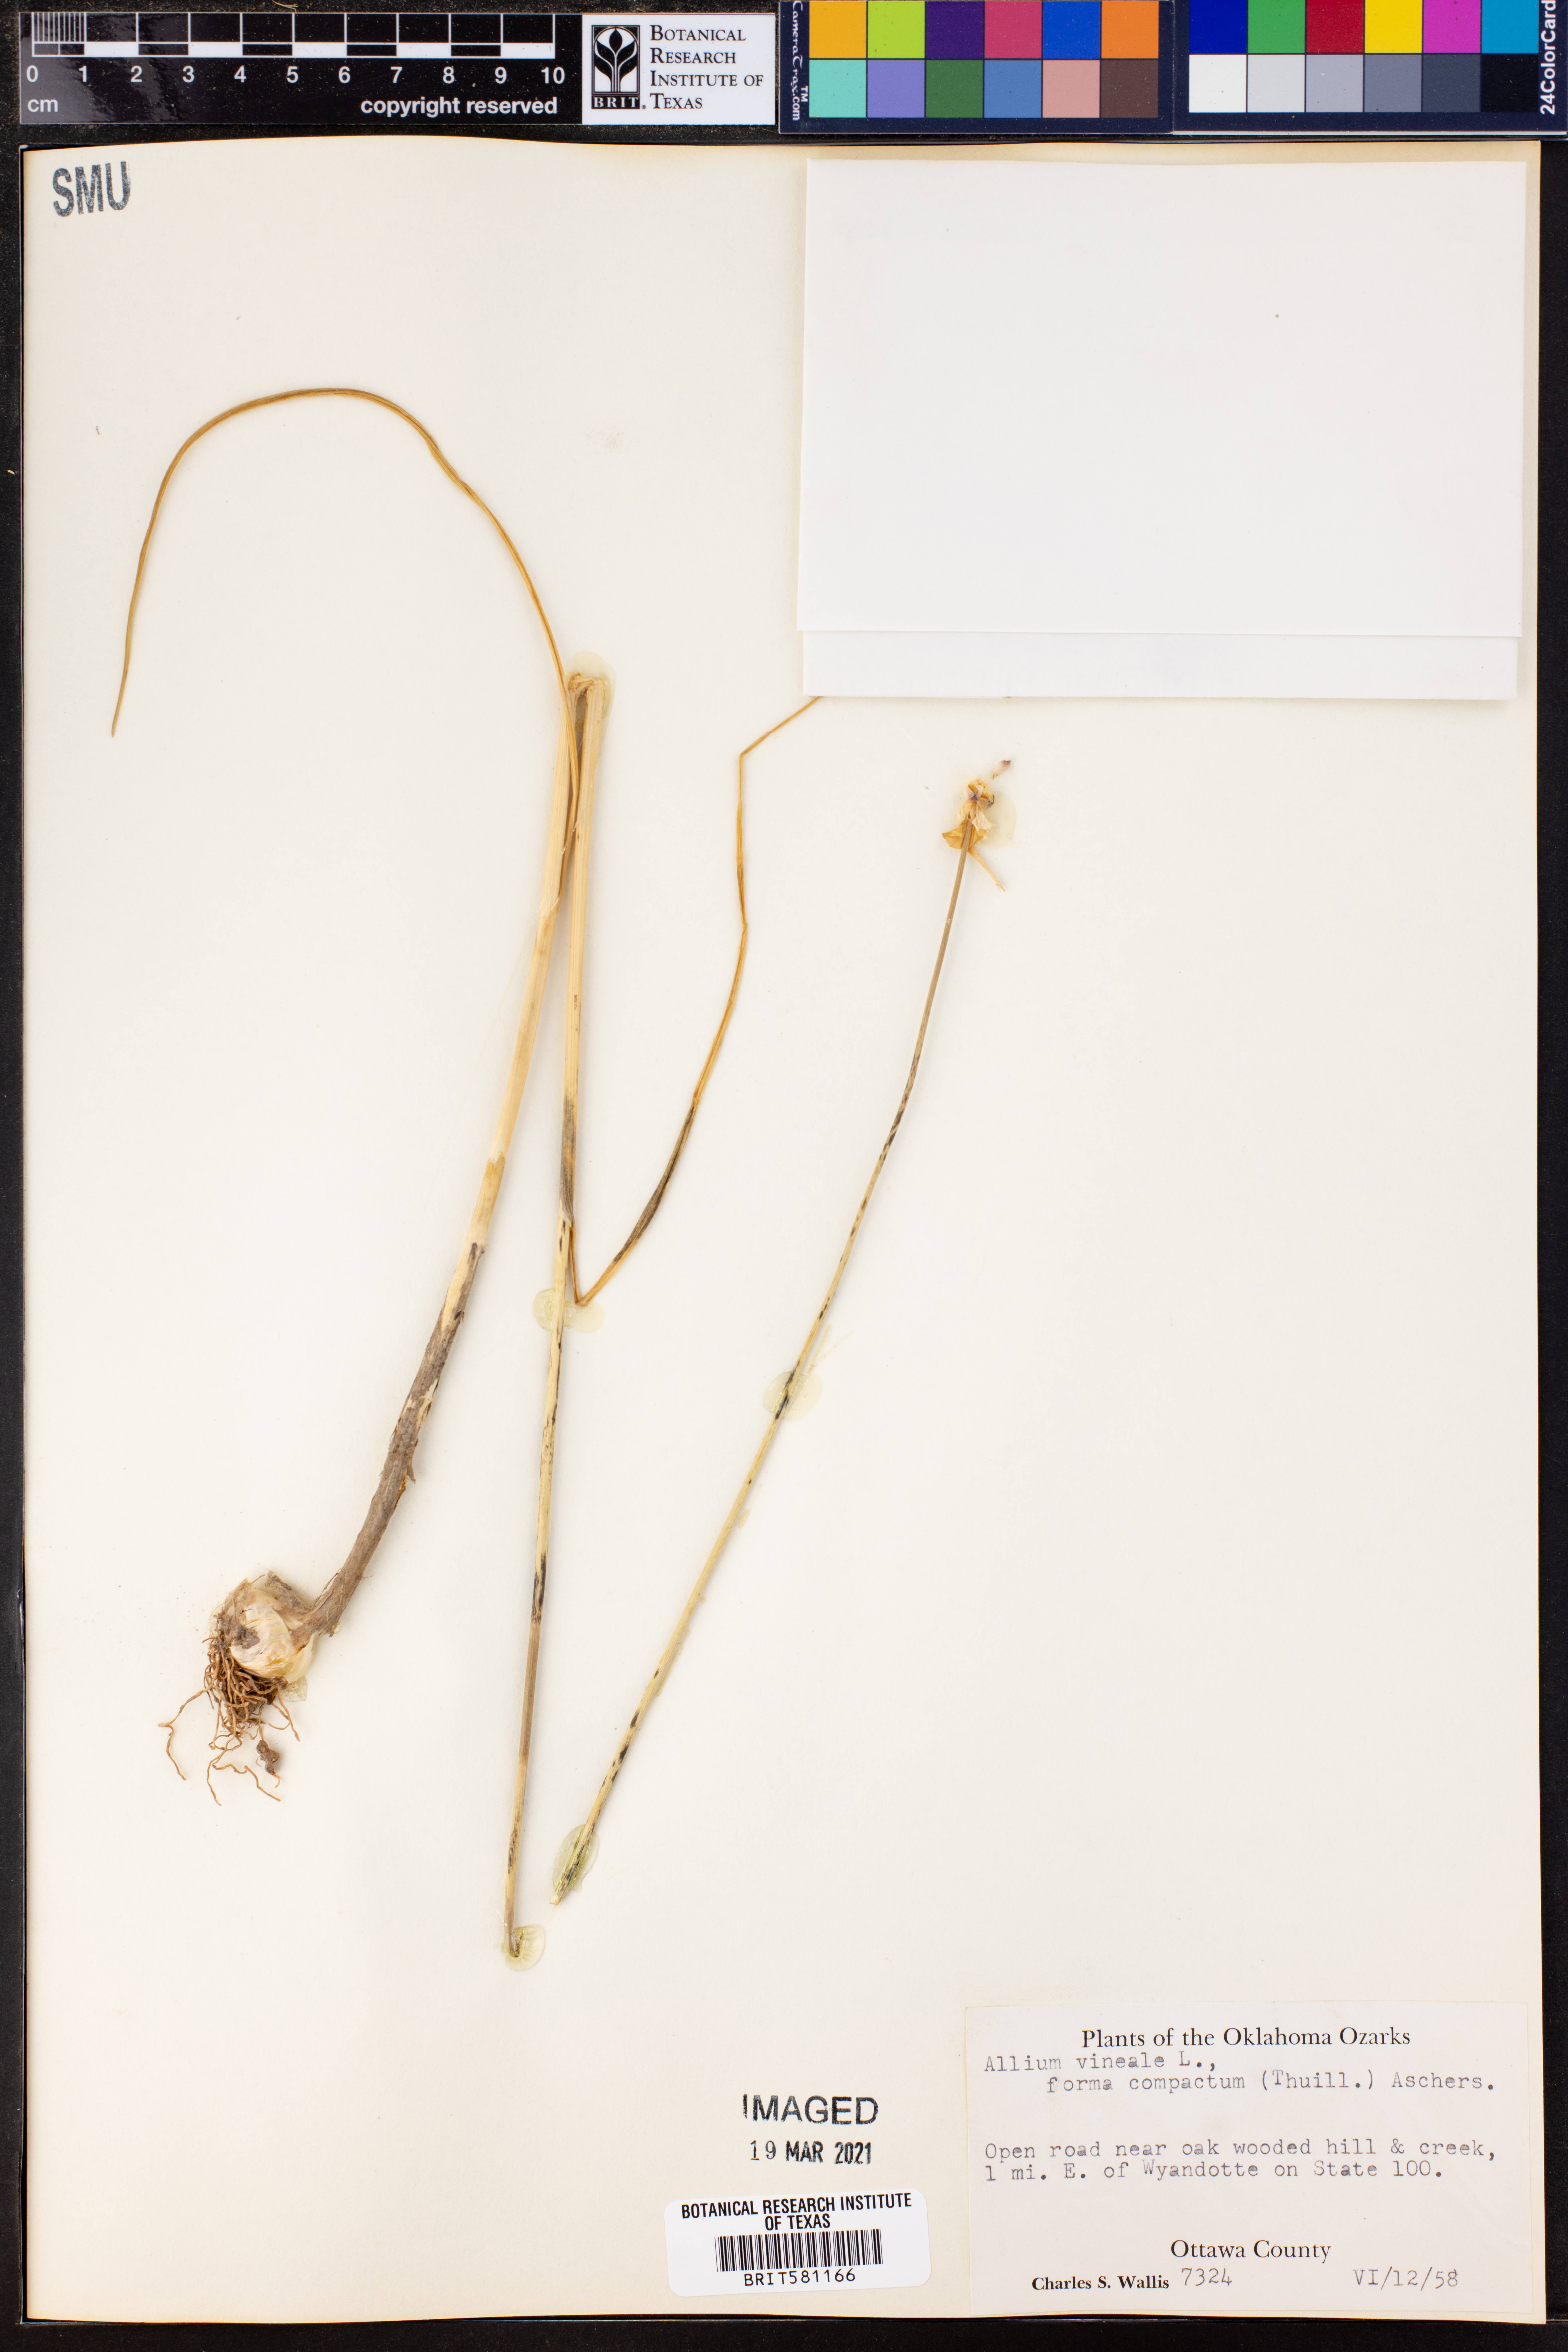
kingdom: Plantae
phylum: Tracheophyta
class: Liliopsida
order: Asparagales
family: Amaryllidaceae
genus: Allium
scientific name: Allium vineale
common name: Crow garlic
